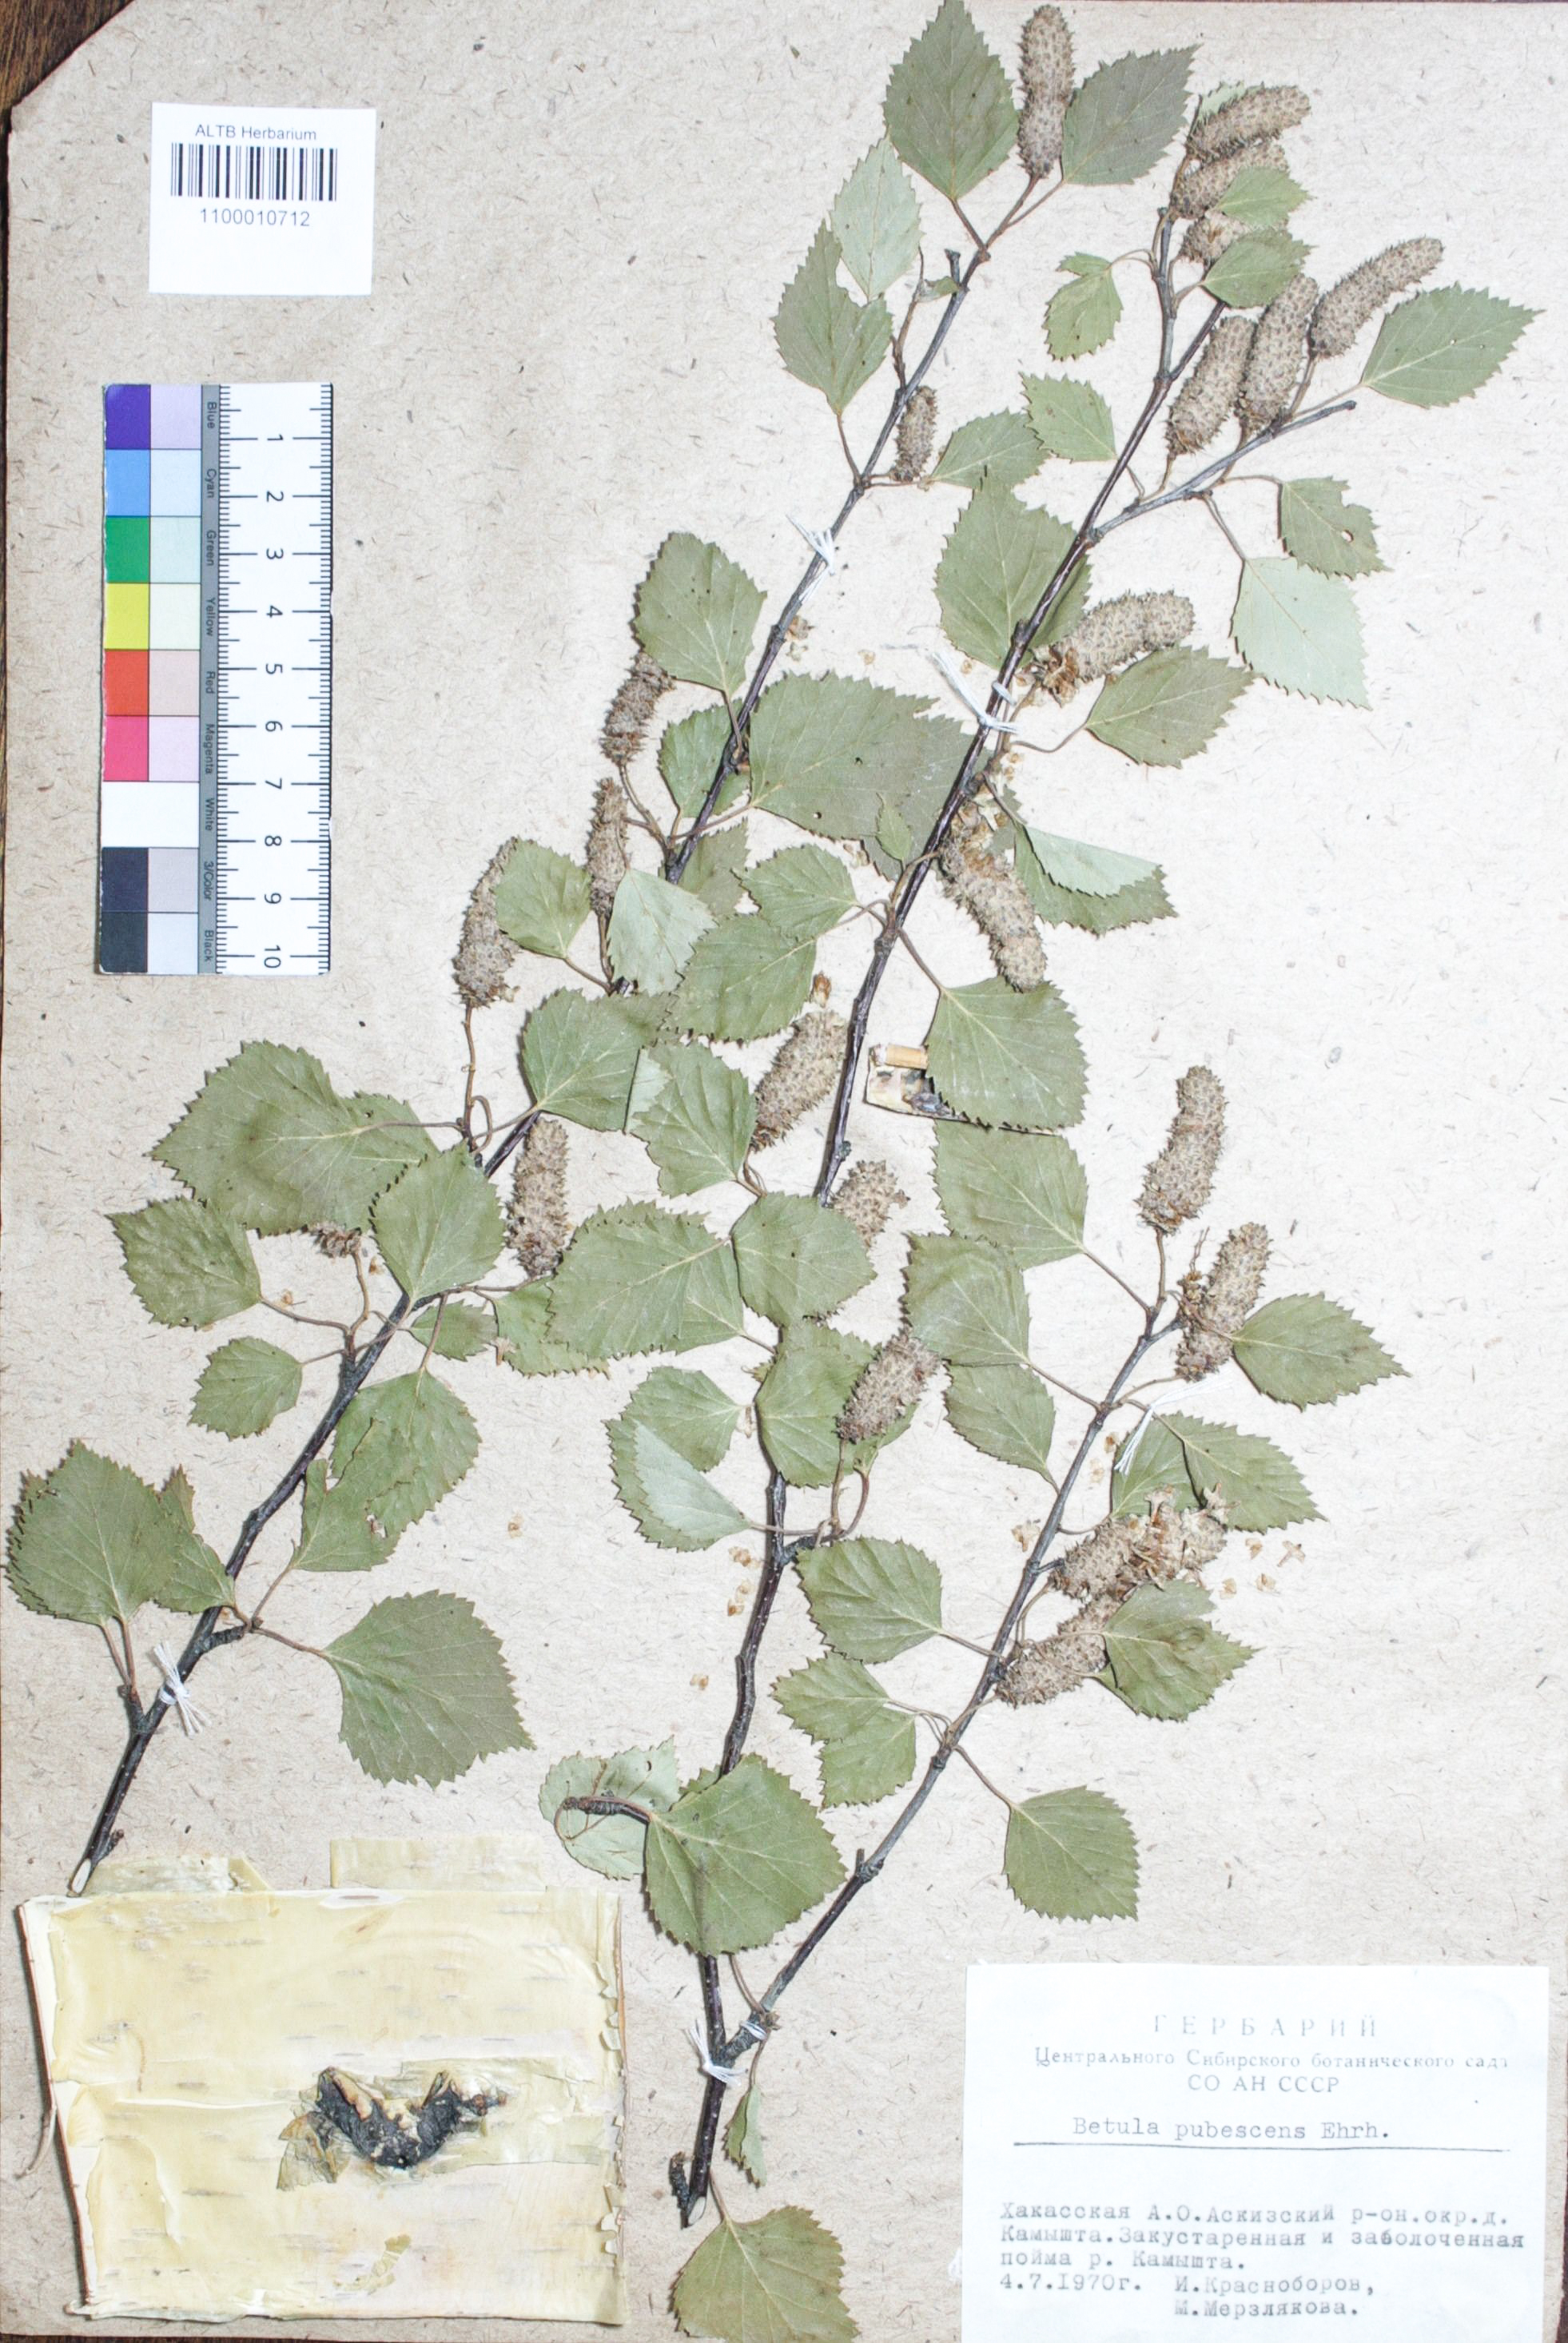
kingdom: Plantae
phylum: Tracheophyta
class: Magnoliopsida
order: Fagales
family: Betulaceae
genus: Betula
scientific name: Betula pubescens
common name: Downy birch
